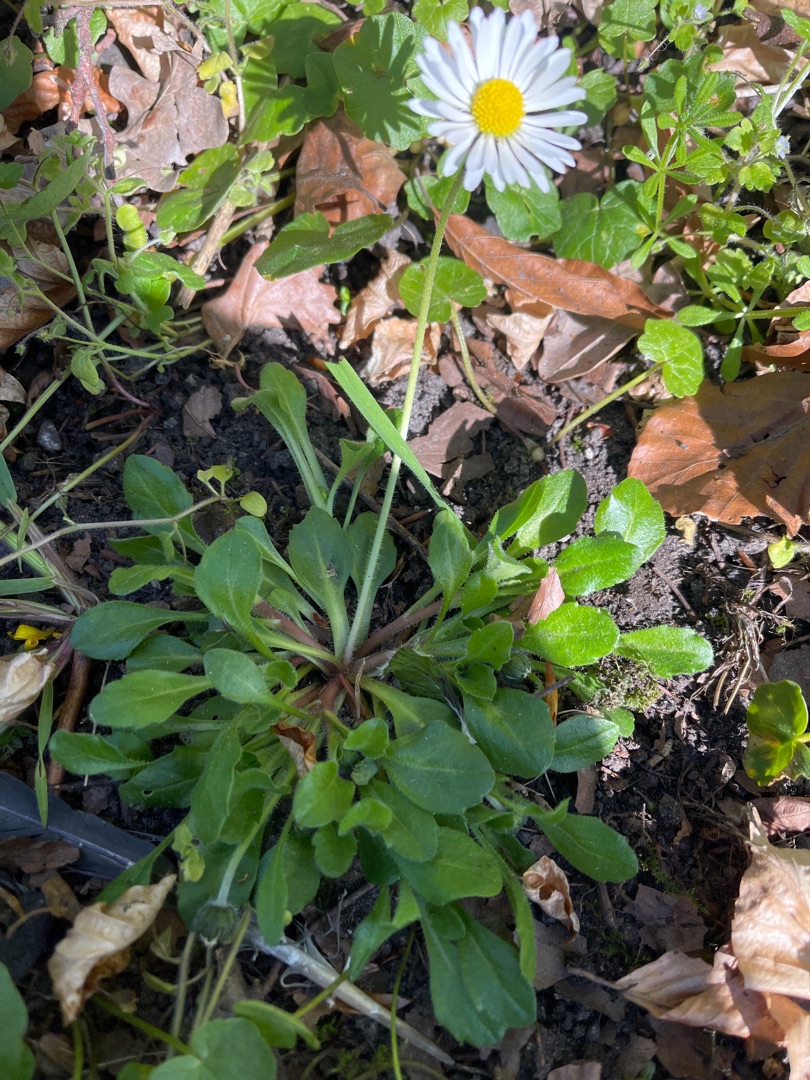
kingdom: Plantae
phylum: Tracheophyta
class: Magnoliopsida
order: Asterales
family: Asteraceae
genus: Bellis
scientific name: Bellis perennis
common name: Tusindfryd
